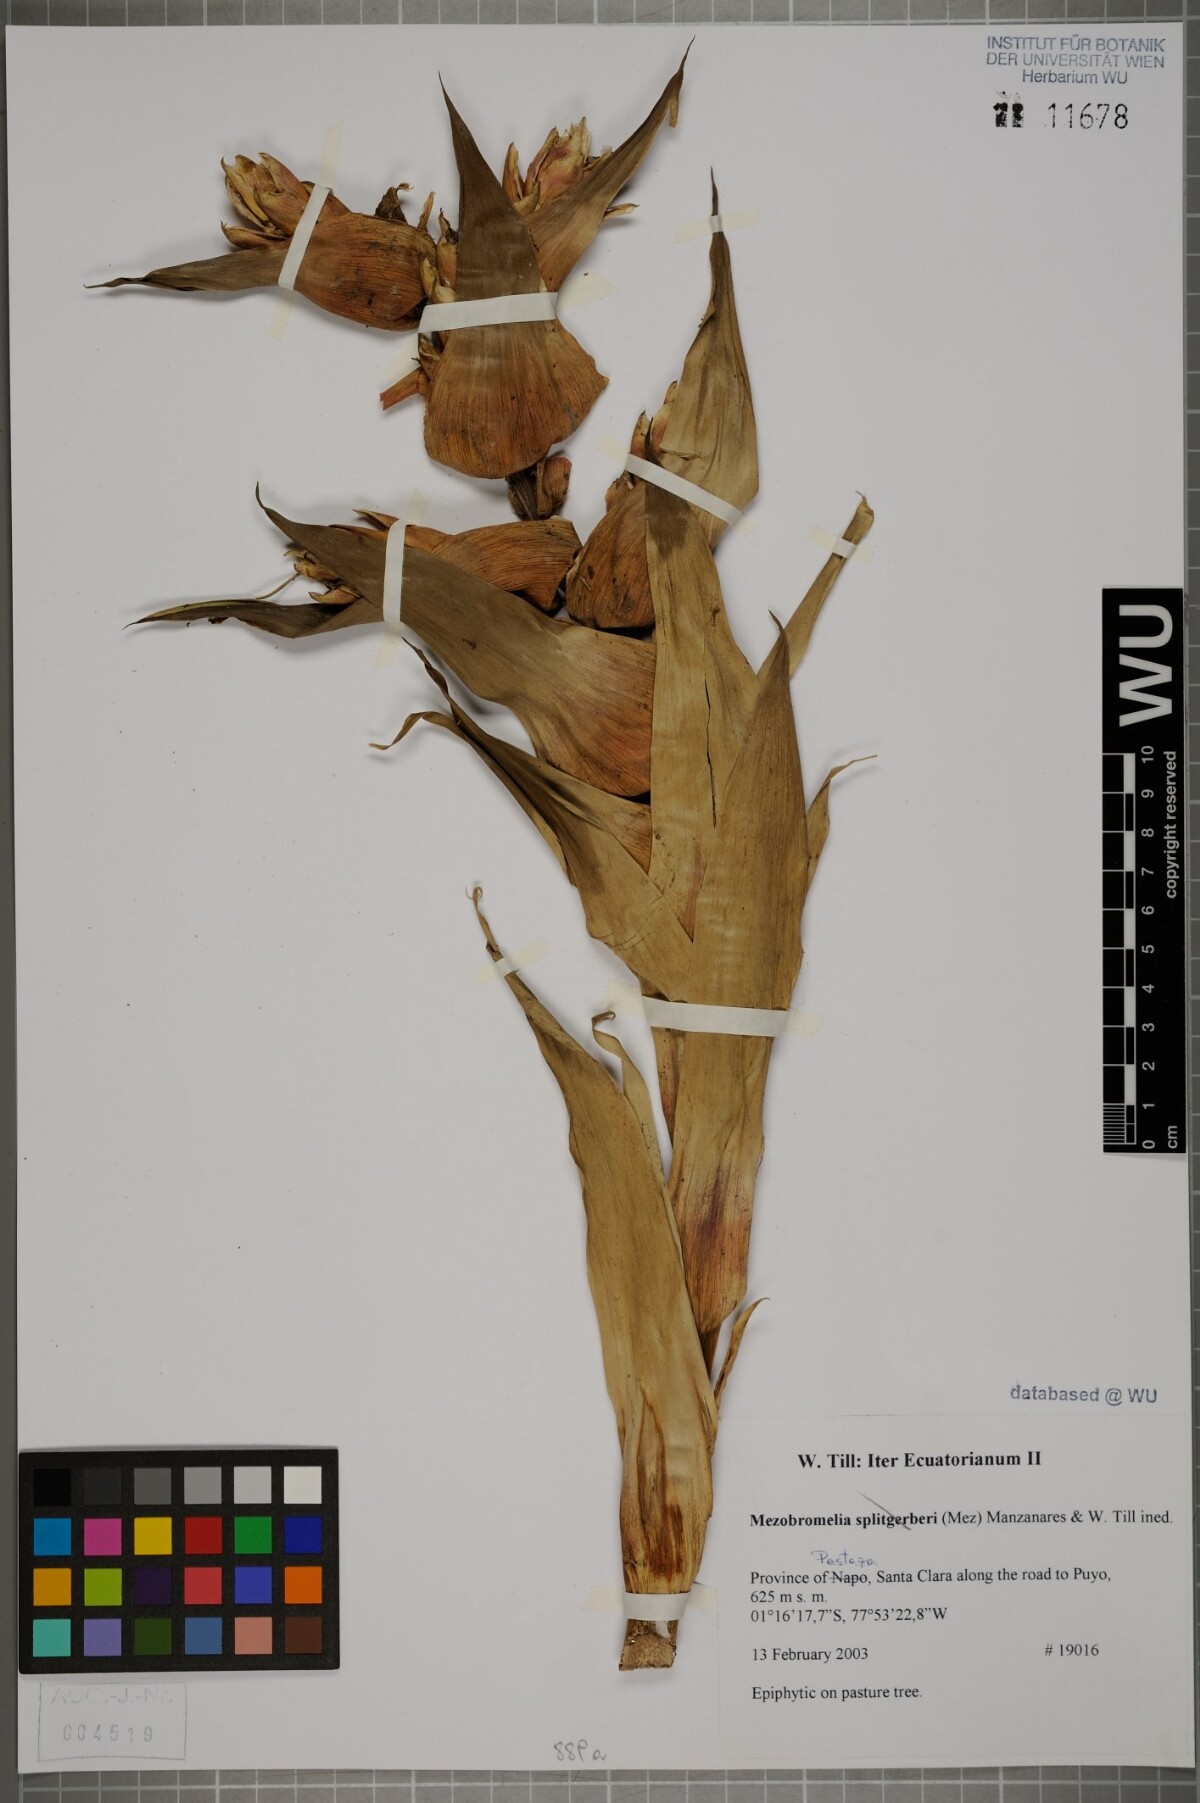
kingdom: Plantae
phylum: Tracheophyta
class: Liliopsida
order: Poales
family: Bromeliaceae
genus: Cipuropsis
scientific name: Cipuropsis
